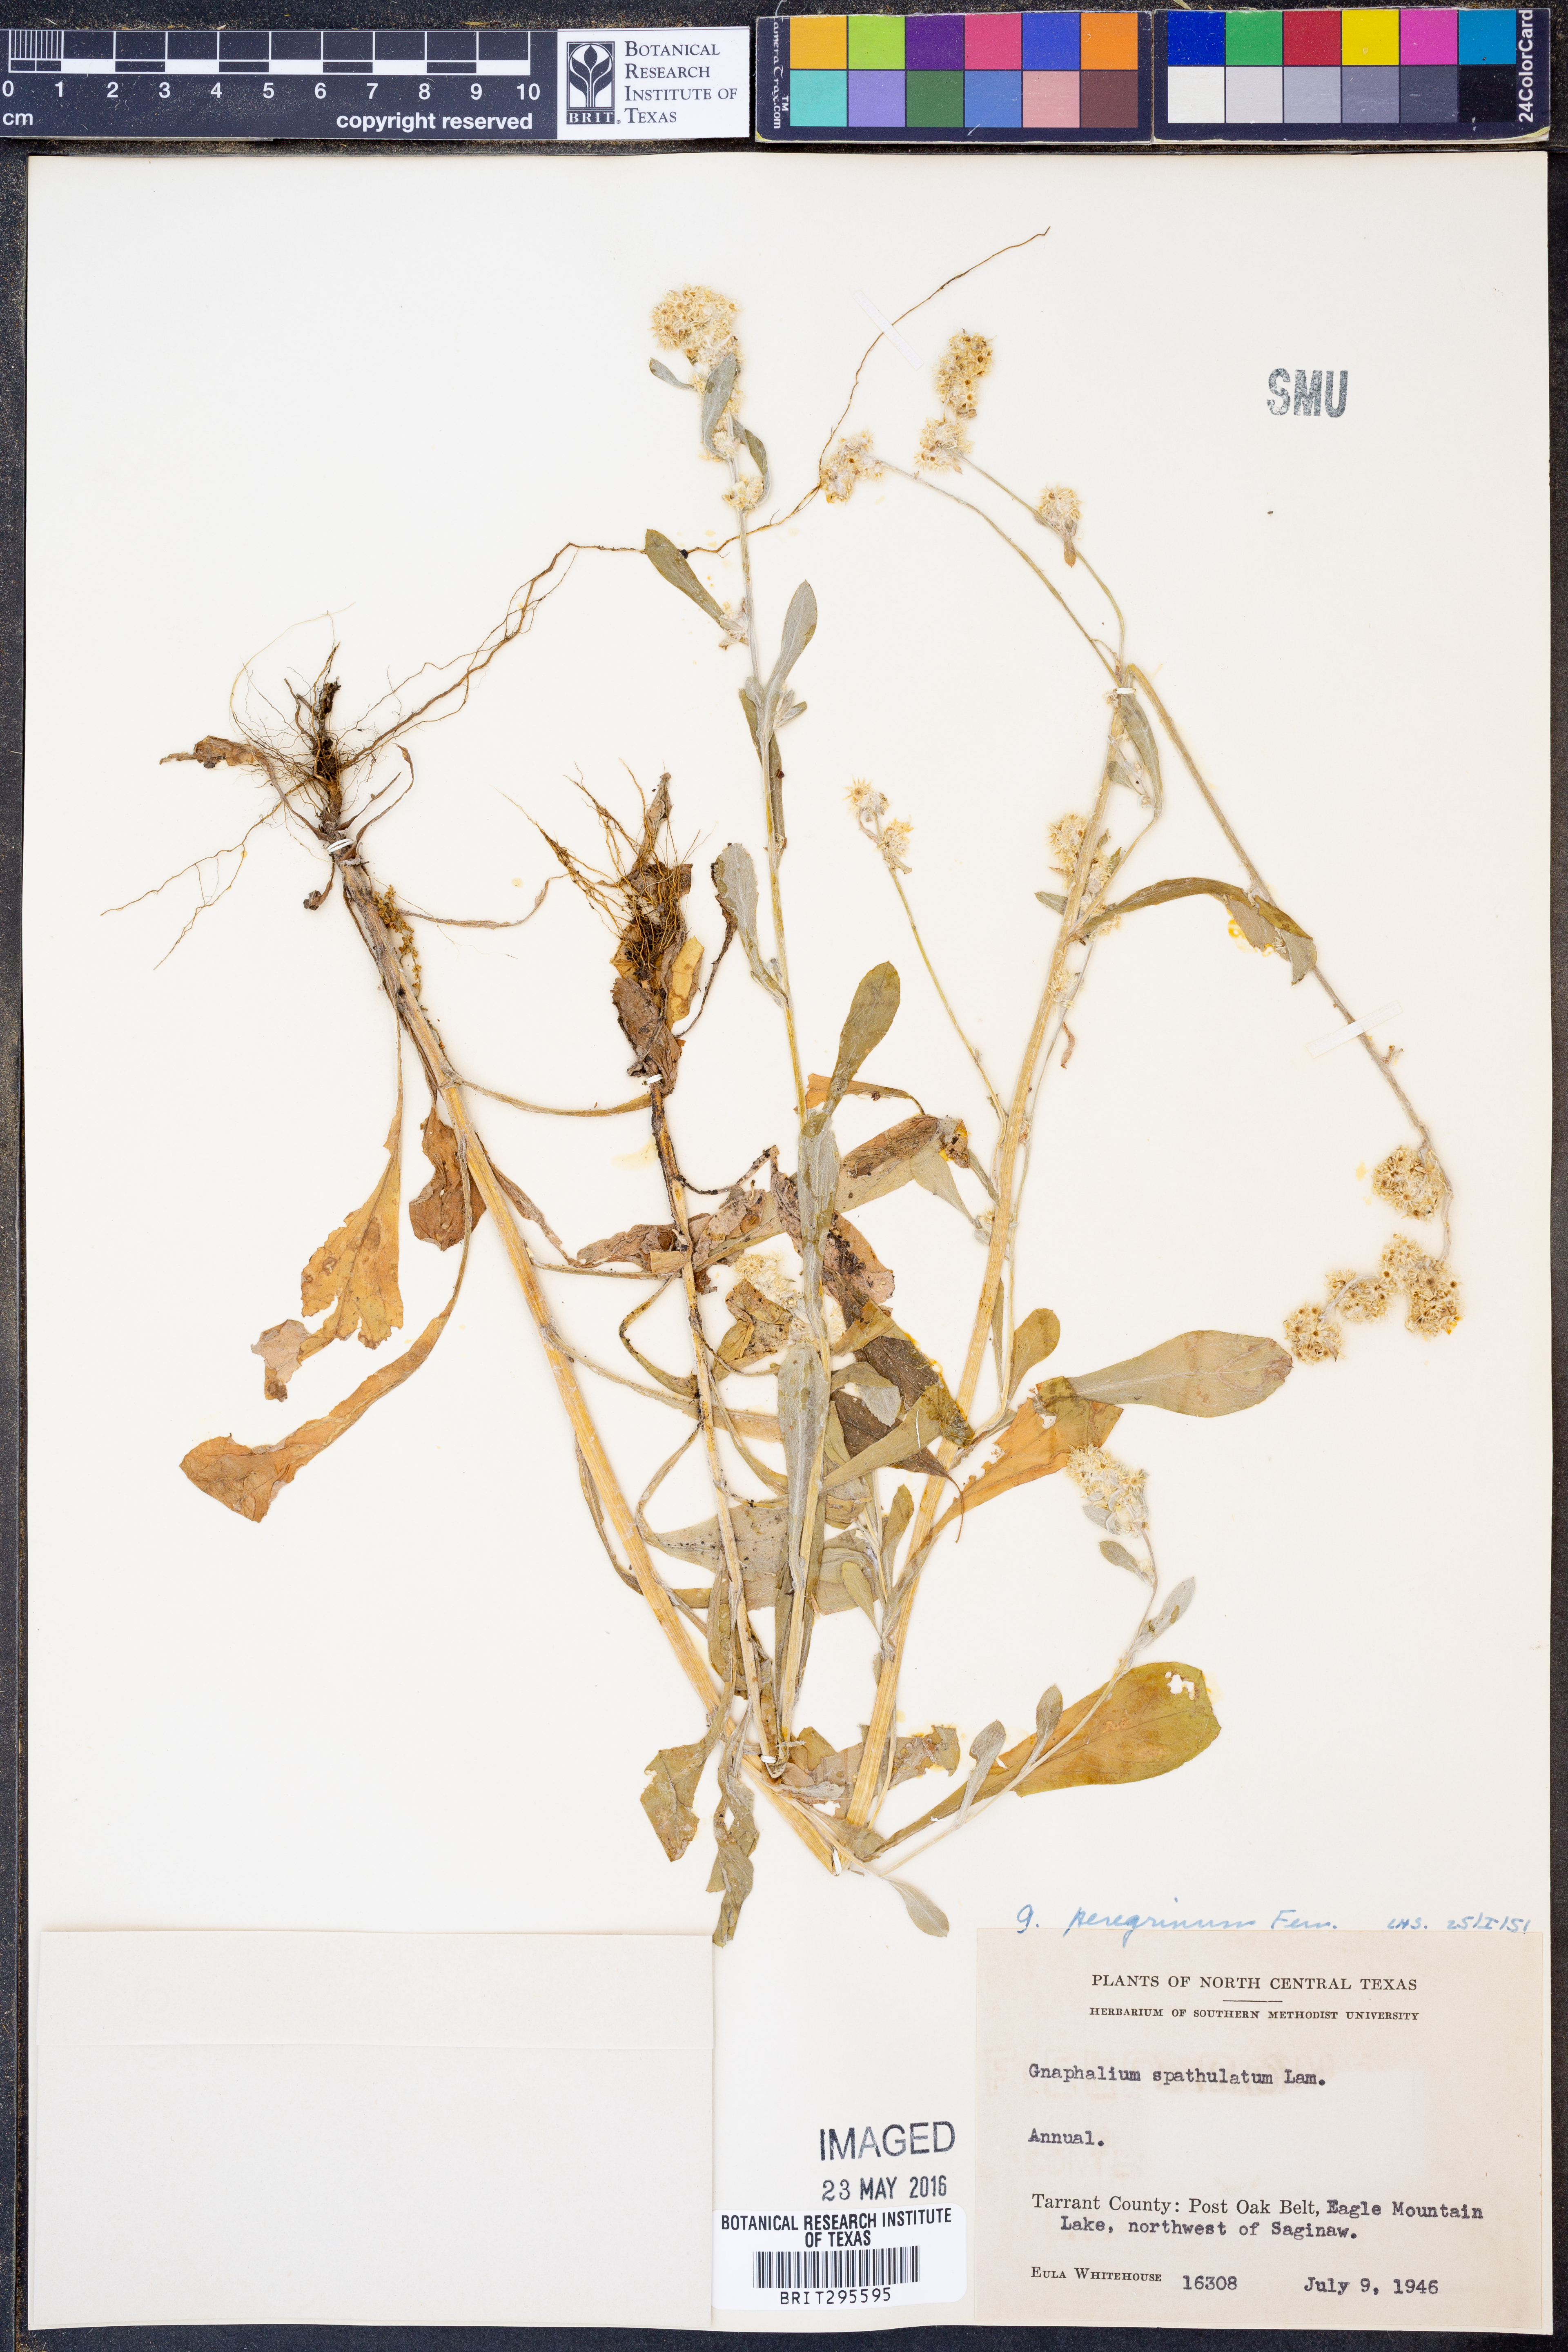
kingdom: Plantae
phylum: Tracheophyta
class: Magnoliopsida
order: Asterales
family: Asteraceae
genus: Gamochaeta
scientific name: Gamochaeta pensylvanica
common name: Pennsylvania everlasting
